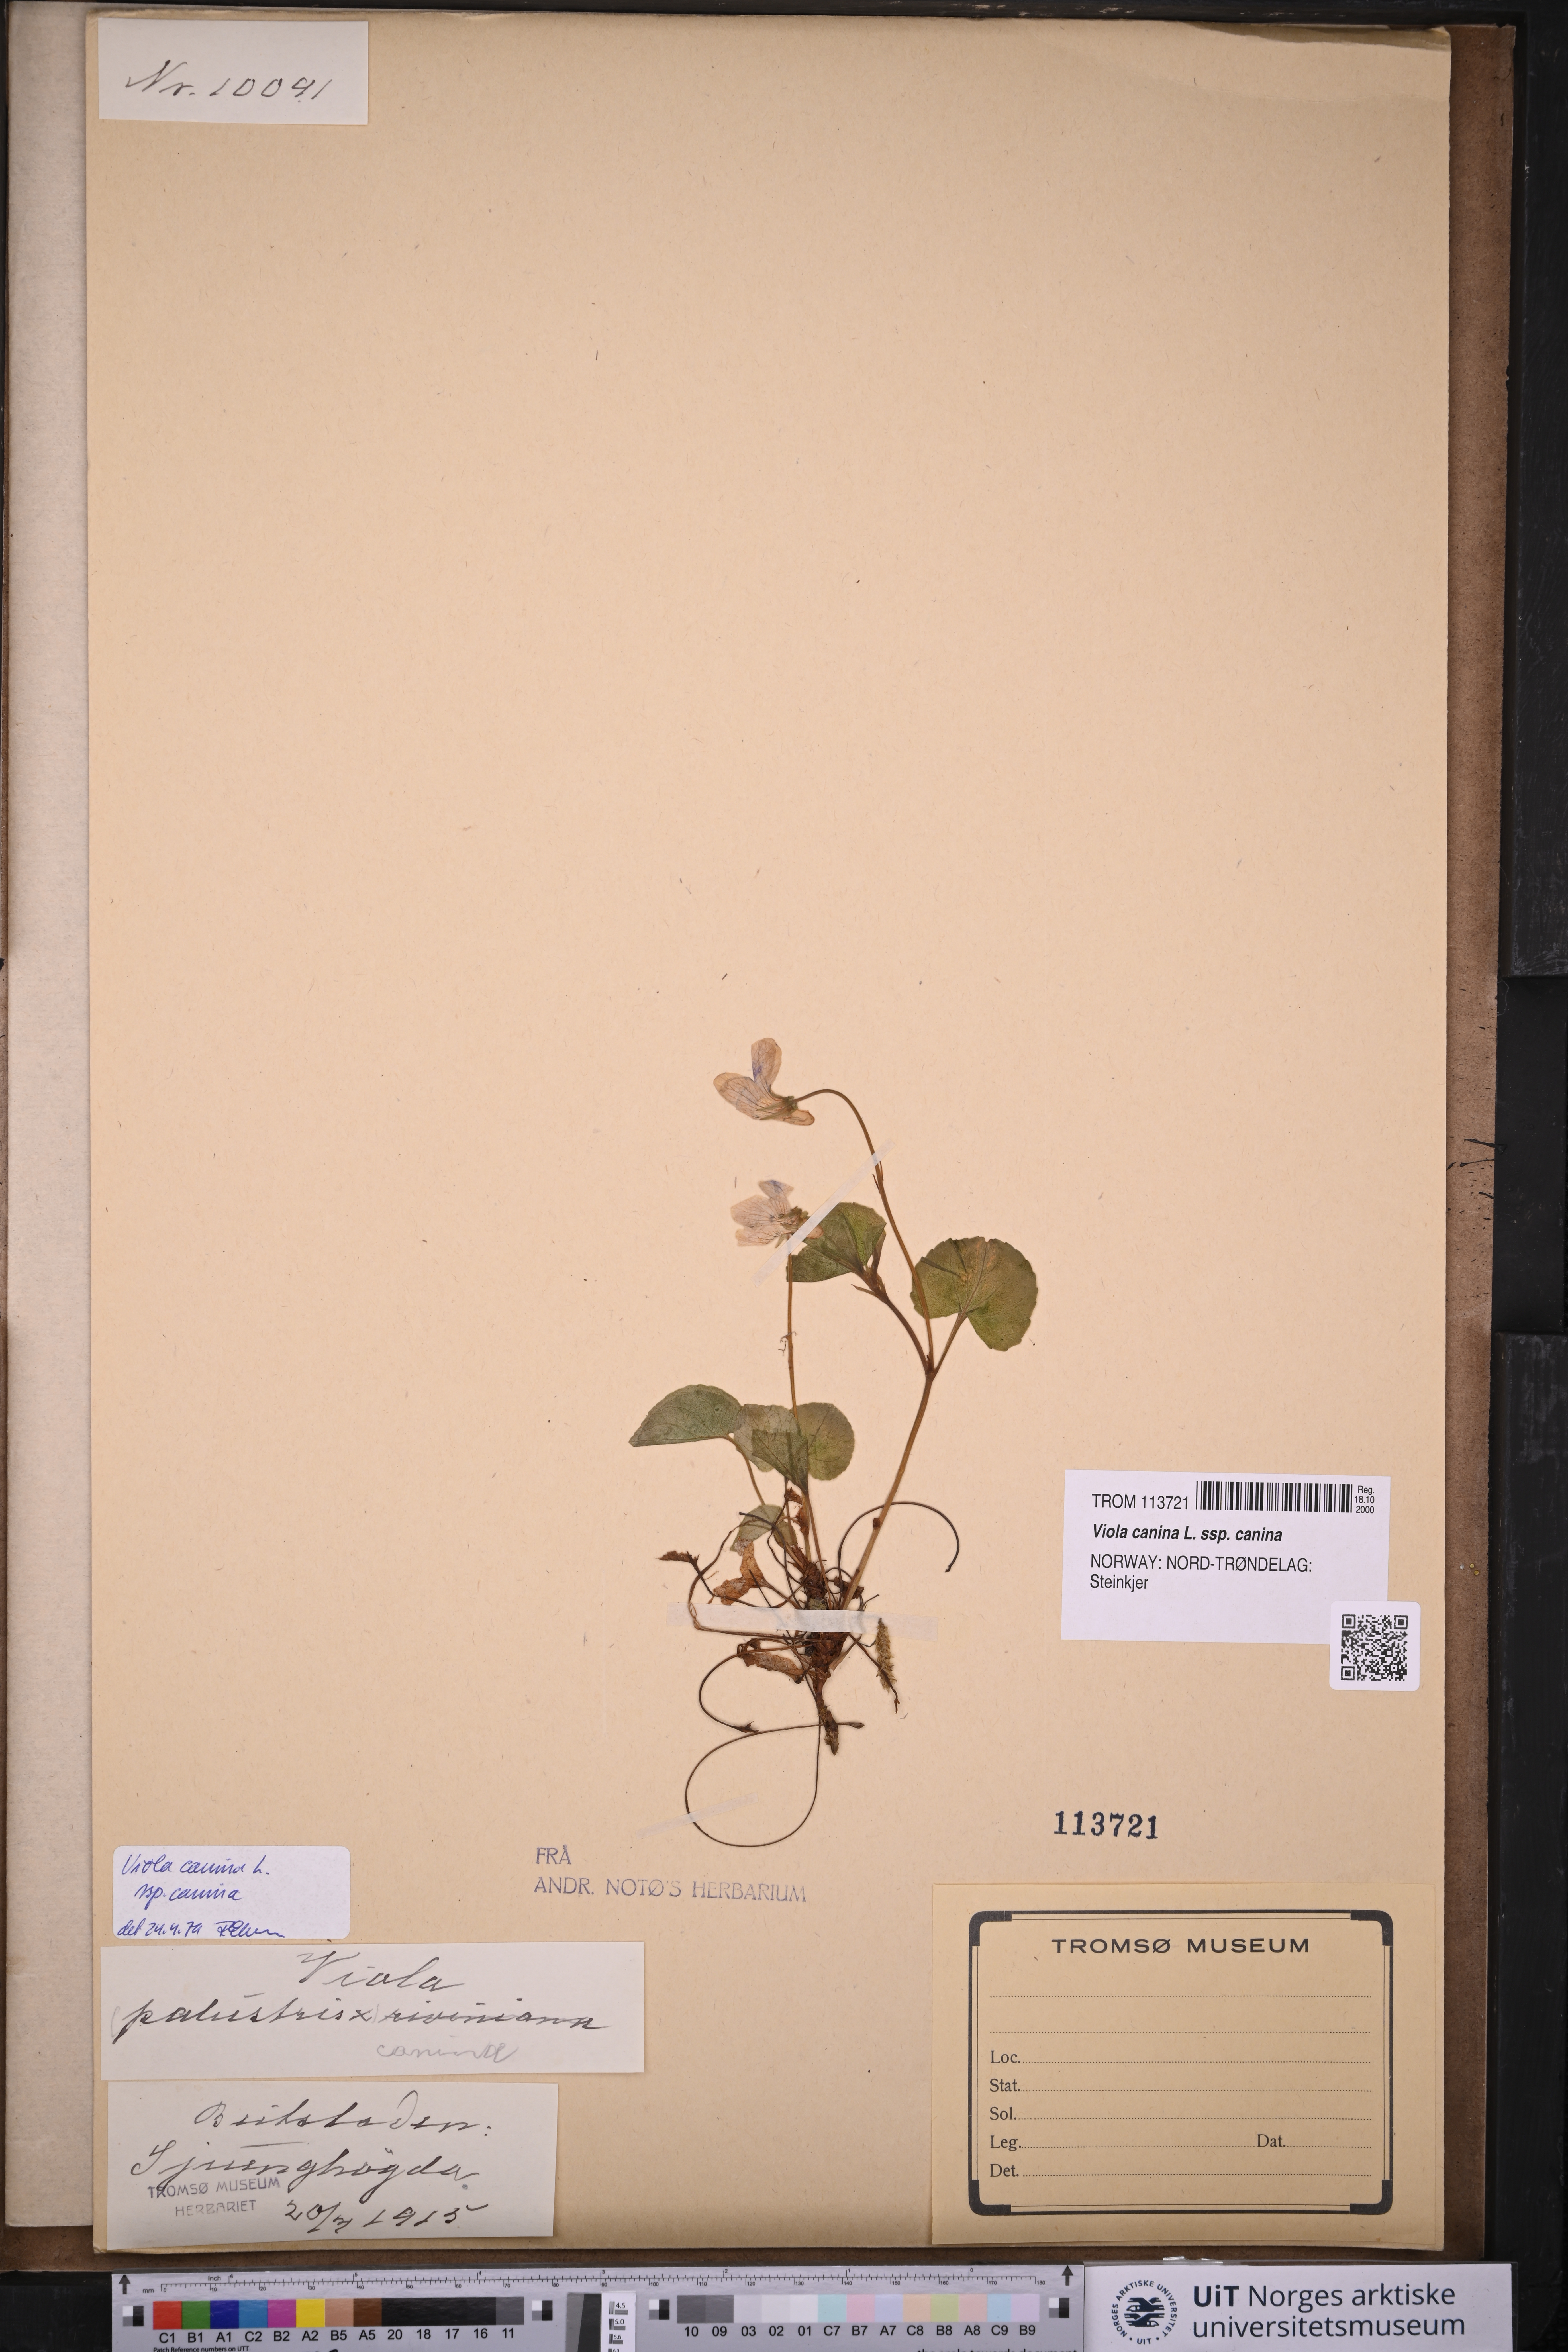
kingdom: Plantae
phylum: Tracheophyta
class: Magnoliopsida
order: Malpighiales
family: Violaceae
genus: Viola
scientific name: Viola canina
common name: Heath dog-violet
